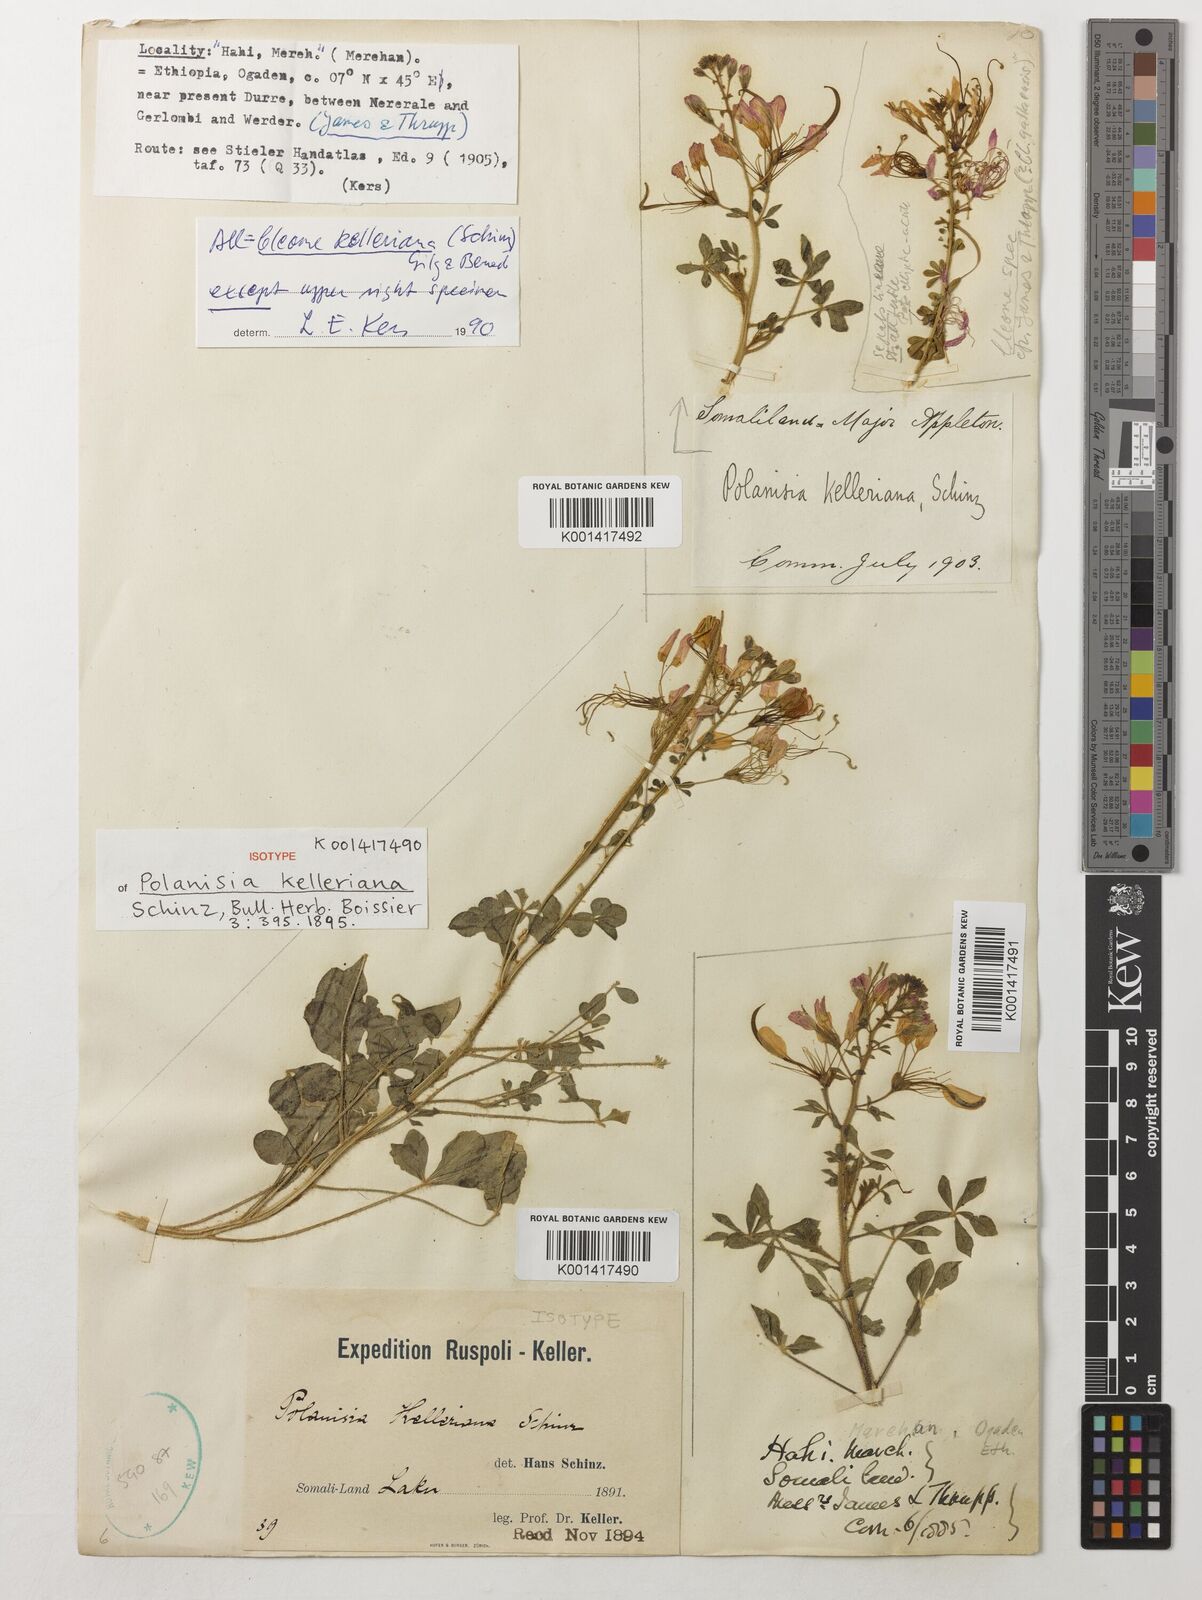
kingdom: Plantae
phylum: Tracheophyta
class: Magnoliopsida
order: Brassicales
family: Cleomaceae
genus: Sieruela
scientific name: Sieruela kelleriana
